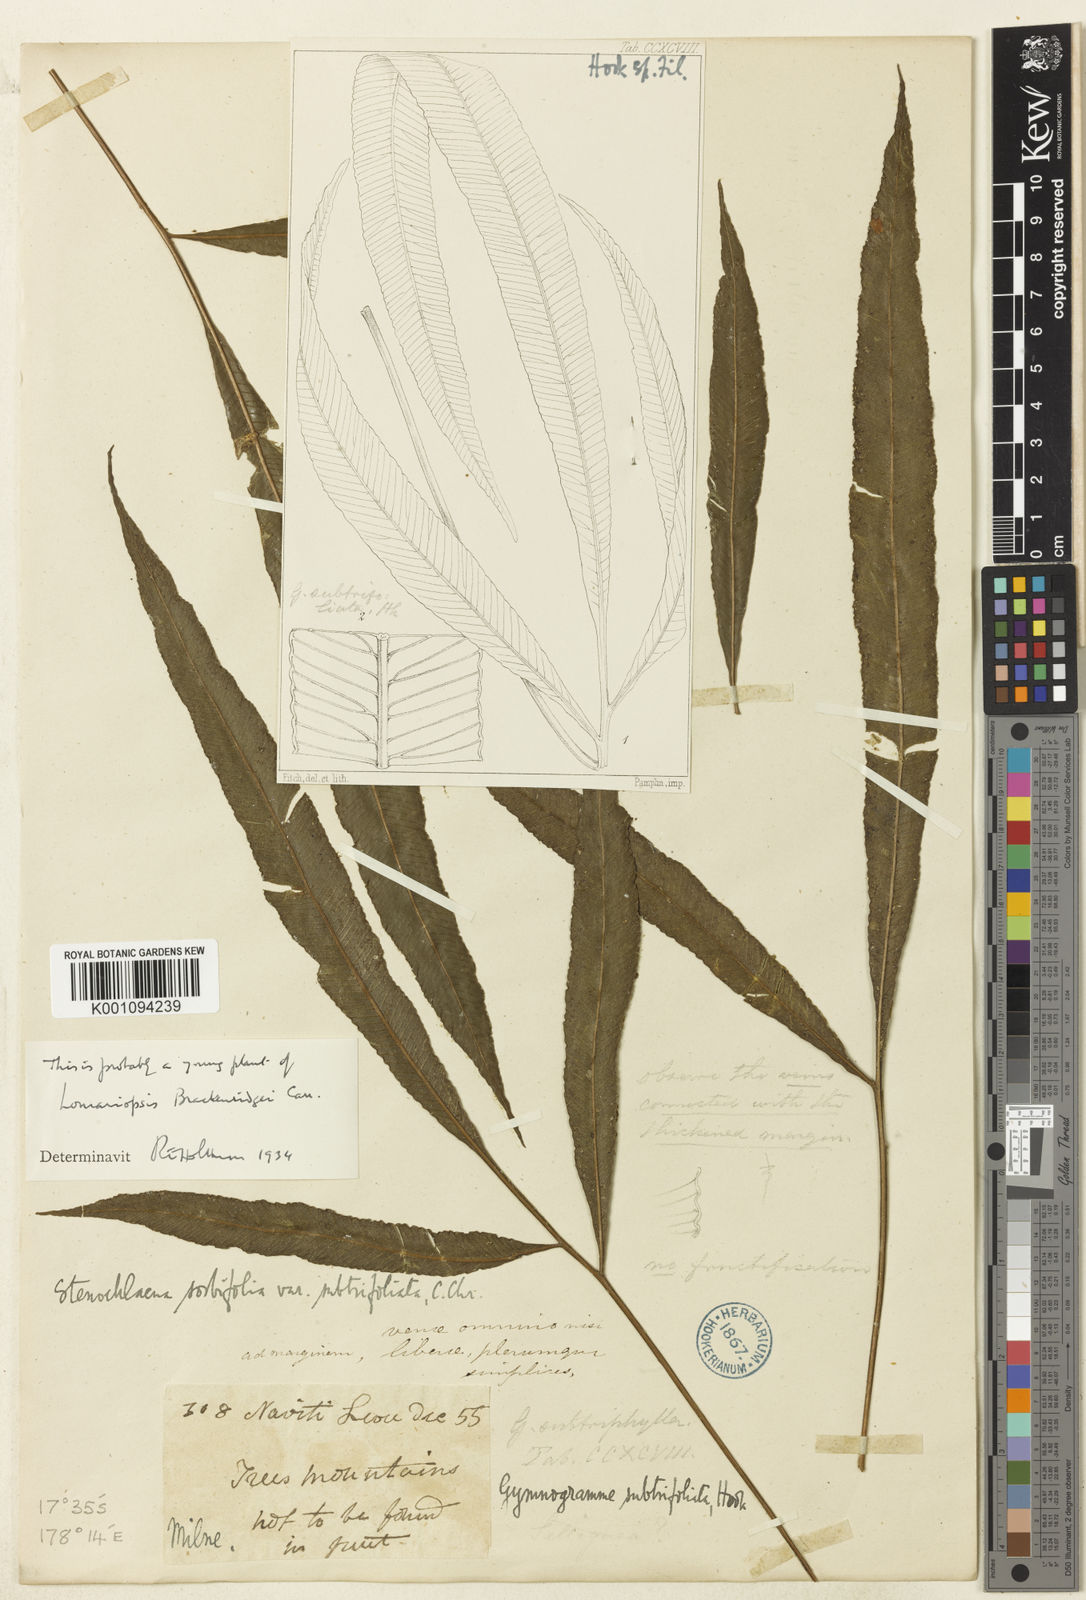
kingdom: Plantae
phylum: Tracheophyta
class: Polypodiopsida
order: Polypodiales
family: Lomariopsidaceae
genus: Lomariopsis
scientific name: Lomariopsis brackenridgei
